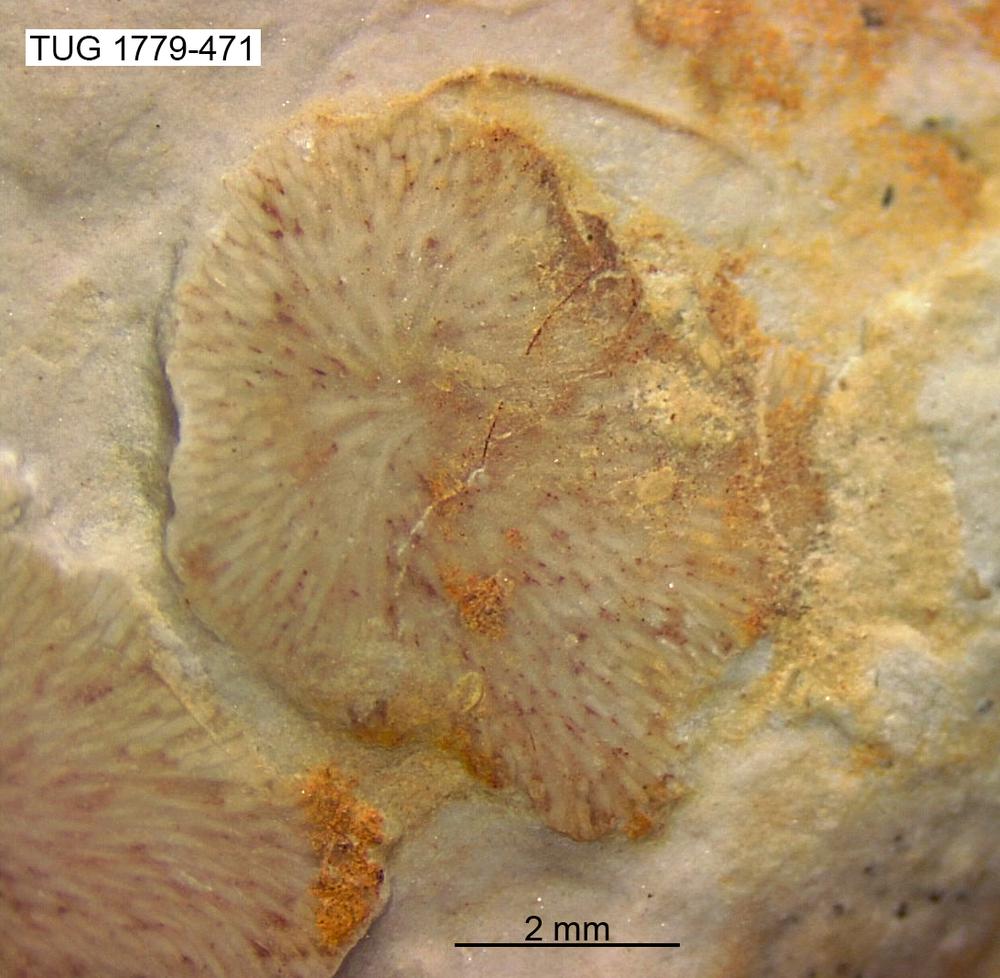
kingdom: Animalia
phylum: Bryozoa
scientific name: Bryozoa
